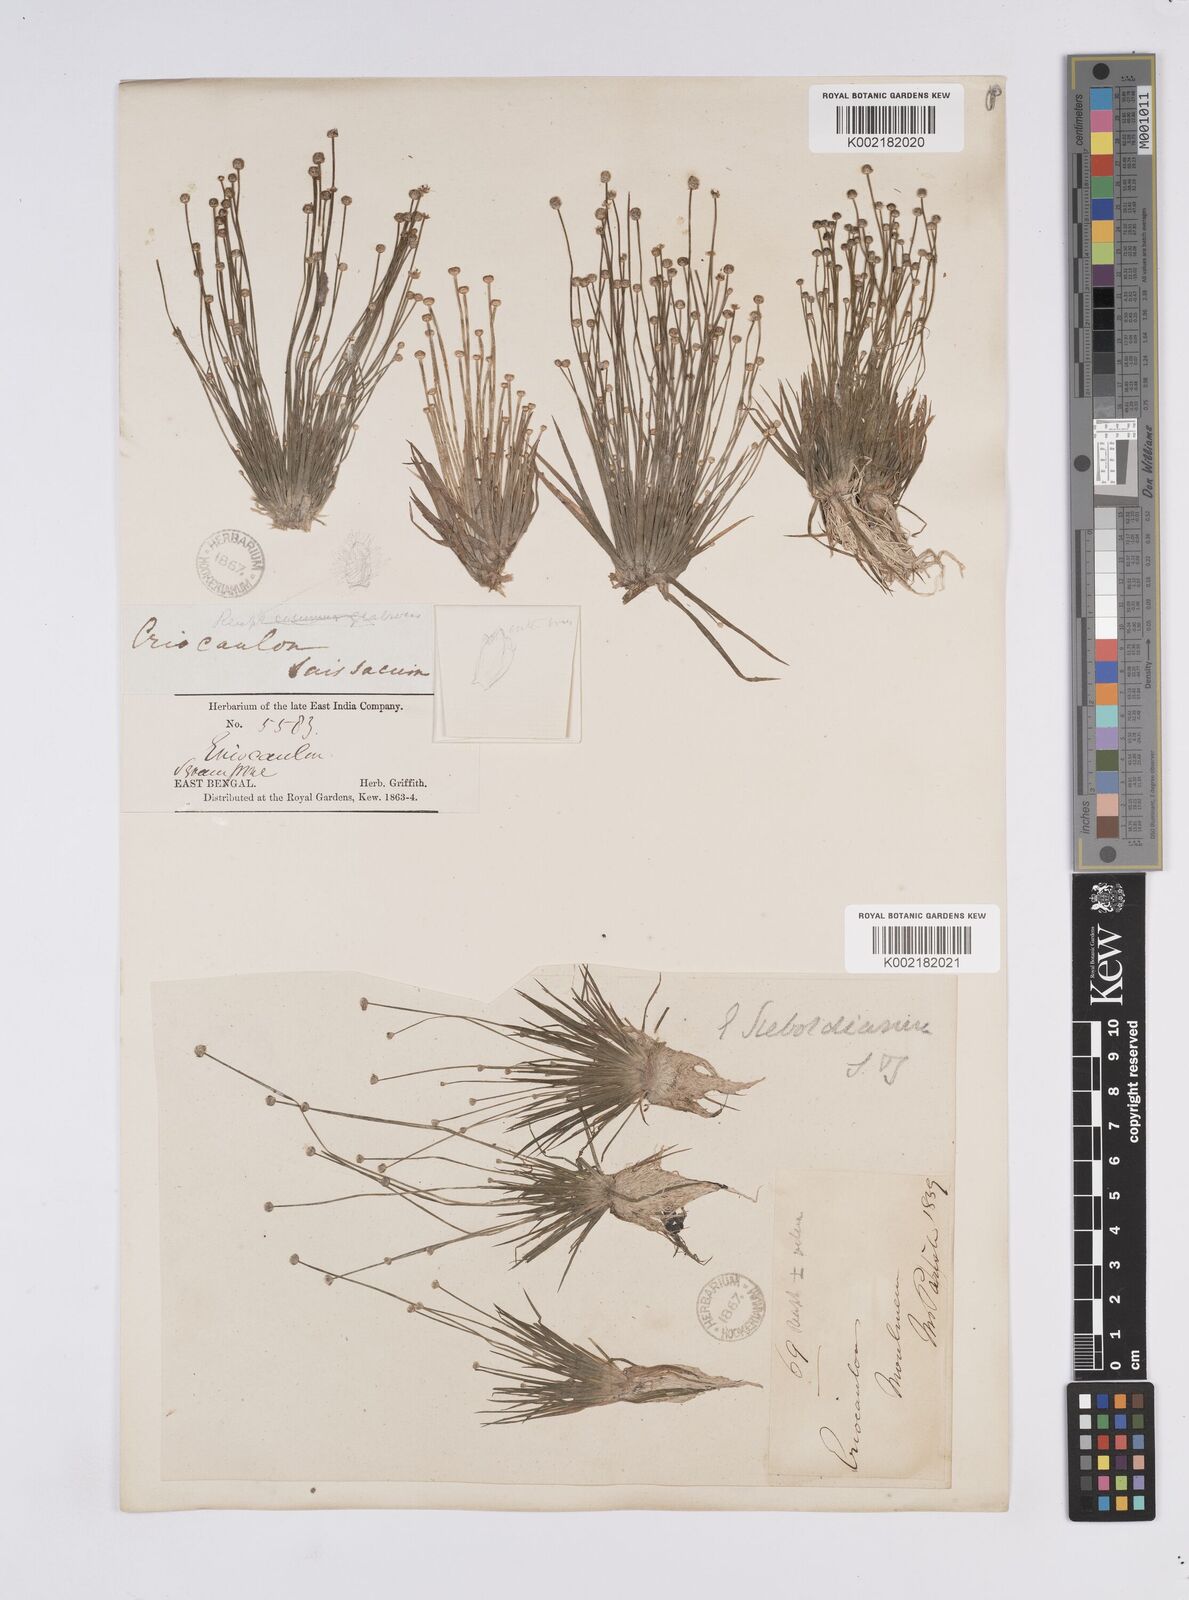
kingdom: Plantae
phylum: Tracheophyta
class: Liliopsida
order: Poales
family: Eriocaulaceae
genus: Eriocaulon
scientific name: Eriocaulon cinereum
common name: Ashy pipewort
